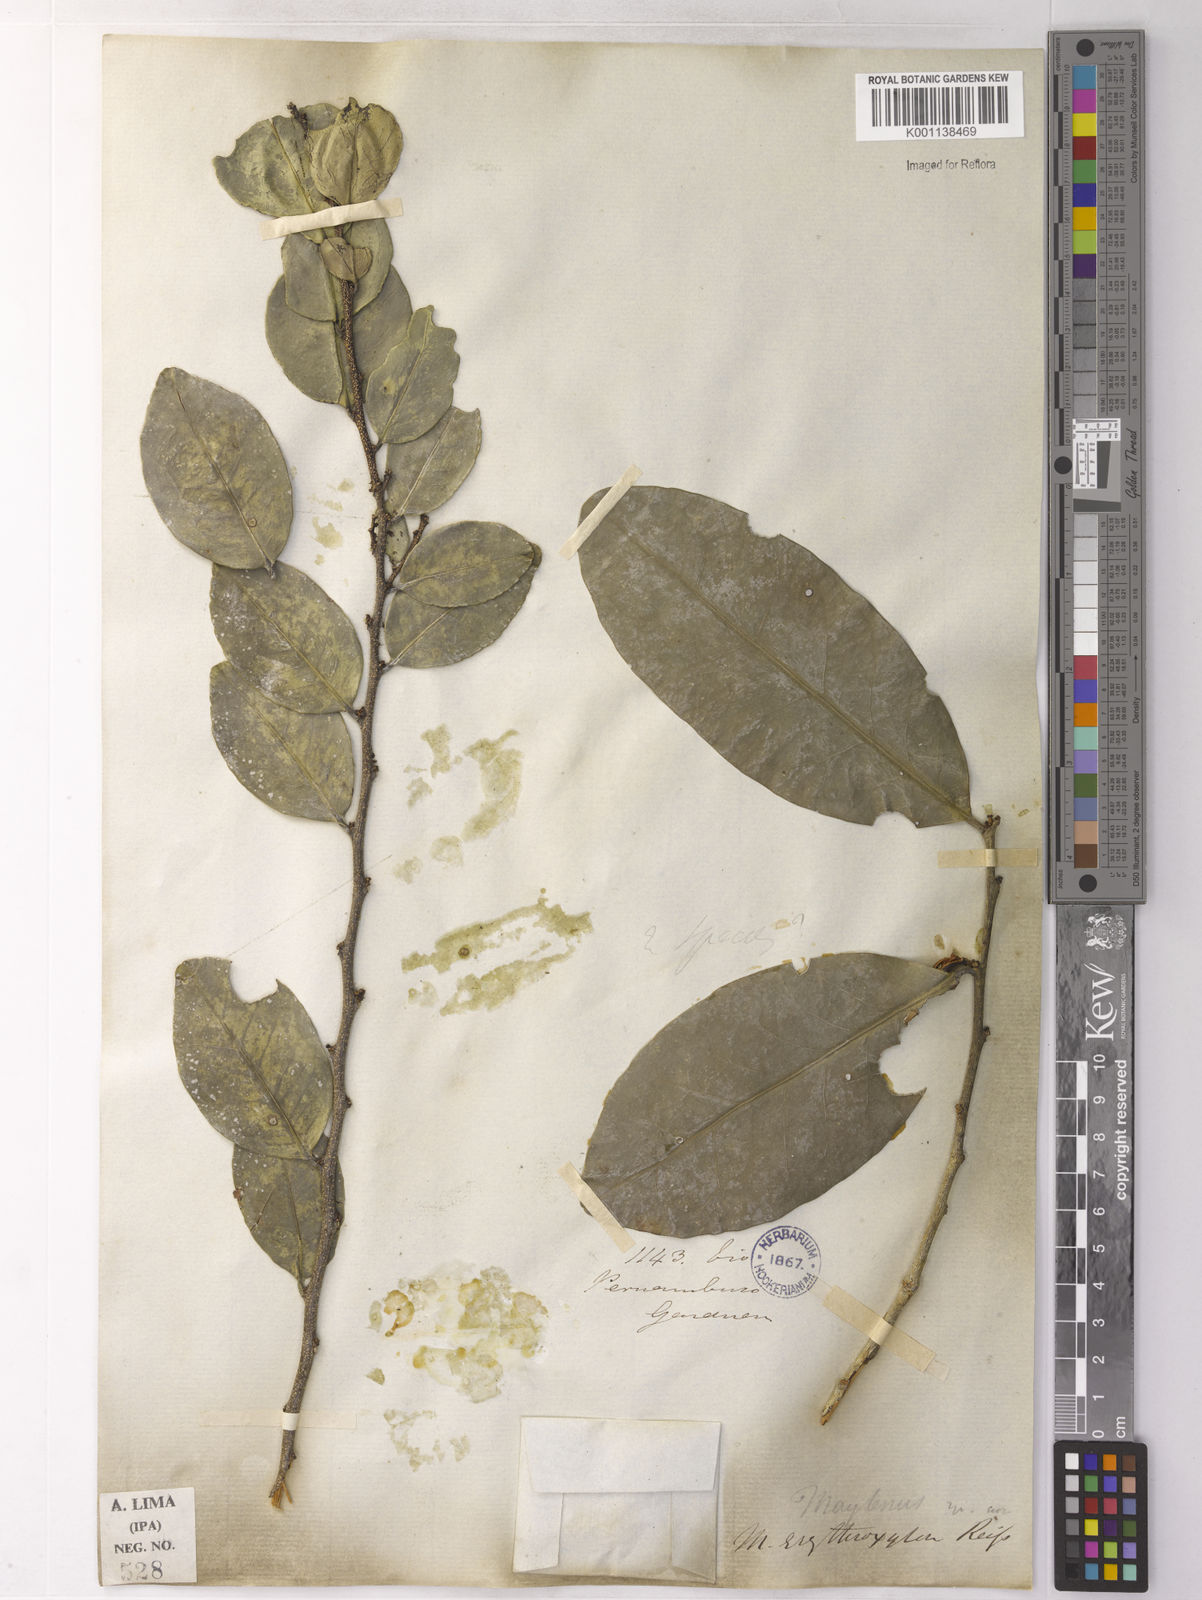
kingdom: Plantae
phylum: Tracheophyta
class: Magnoliopsida
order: Celastrales
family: Celastraceae
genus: Monteverdia
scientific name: Monteverdia erythroxylon
